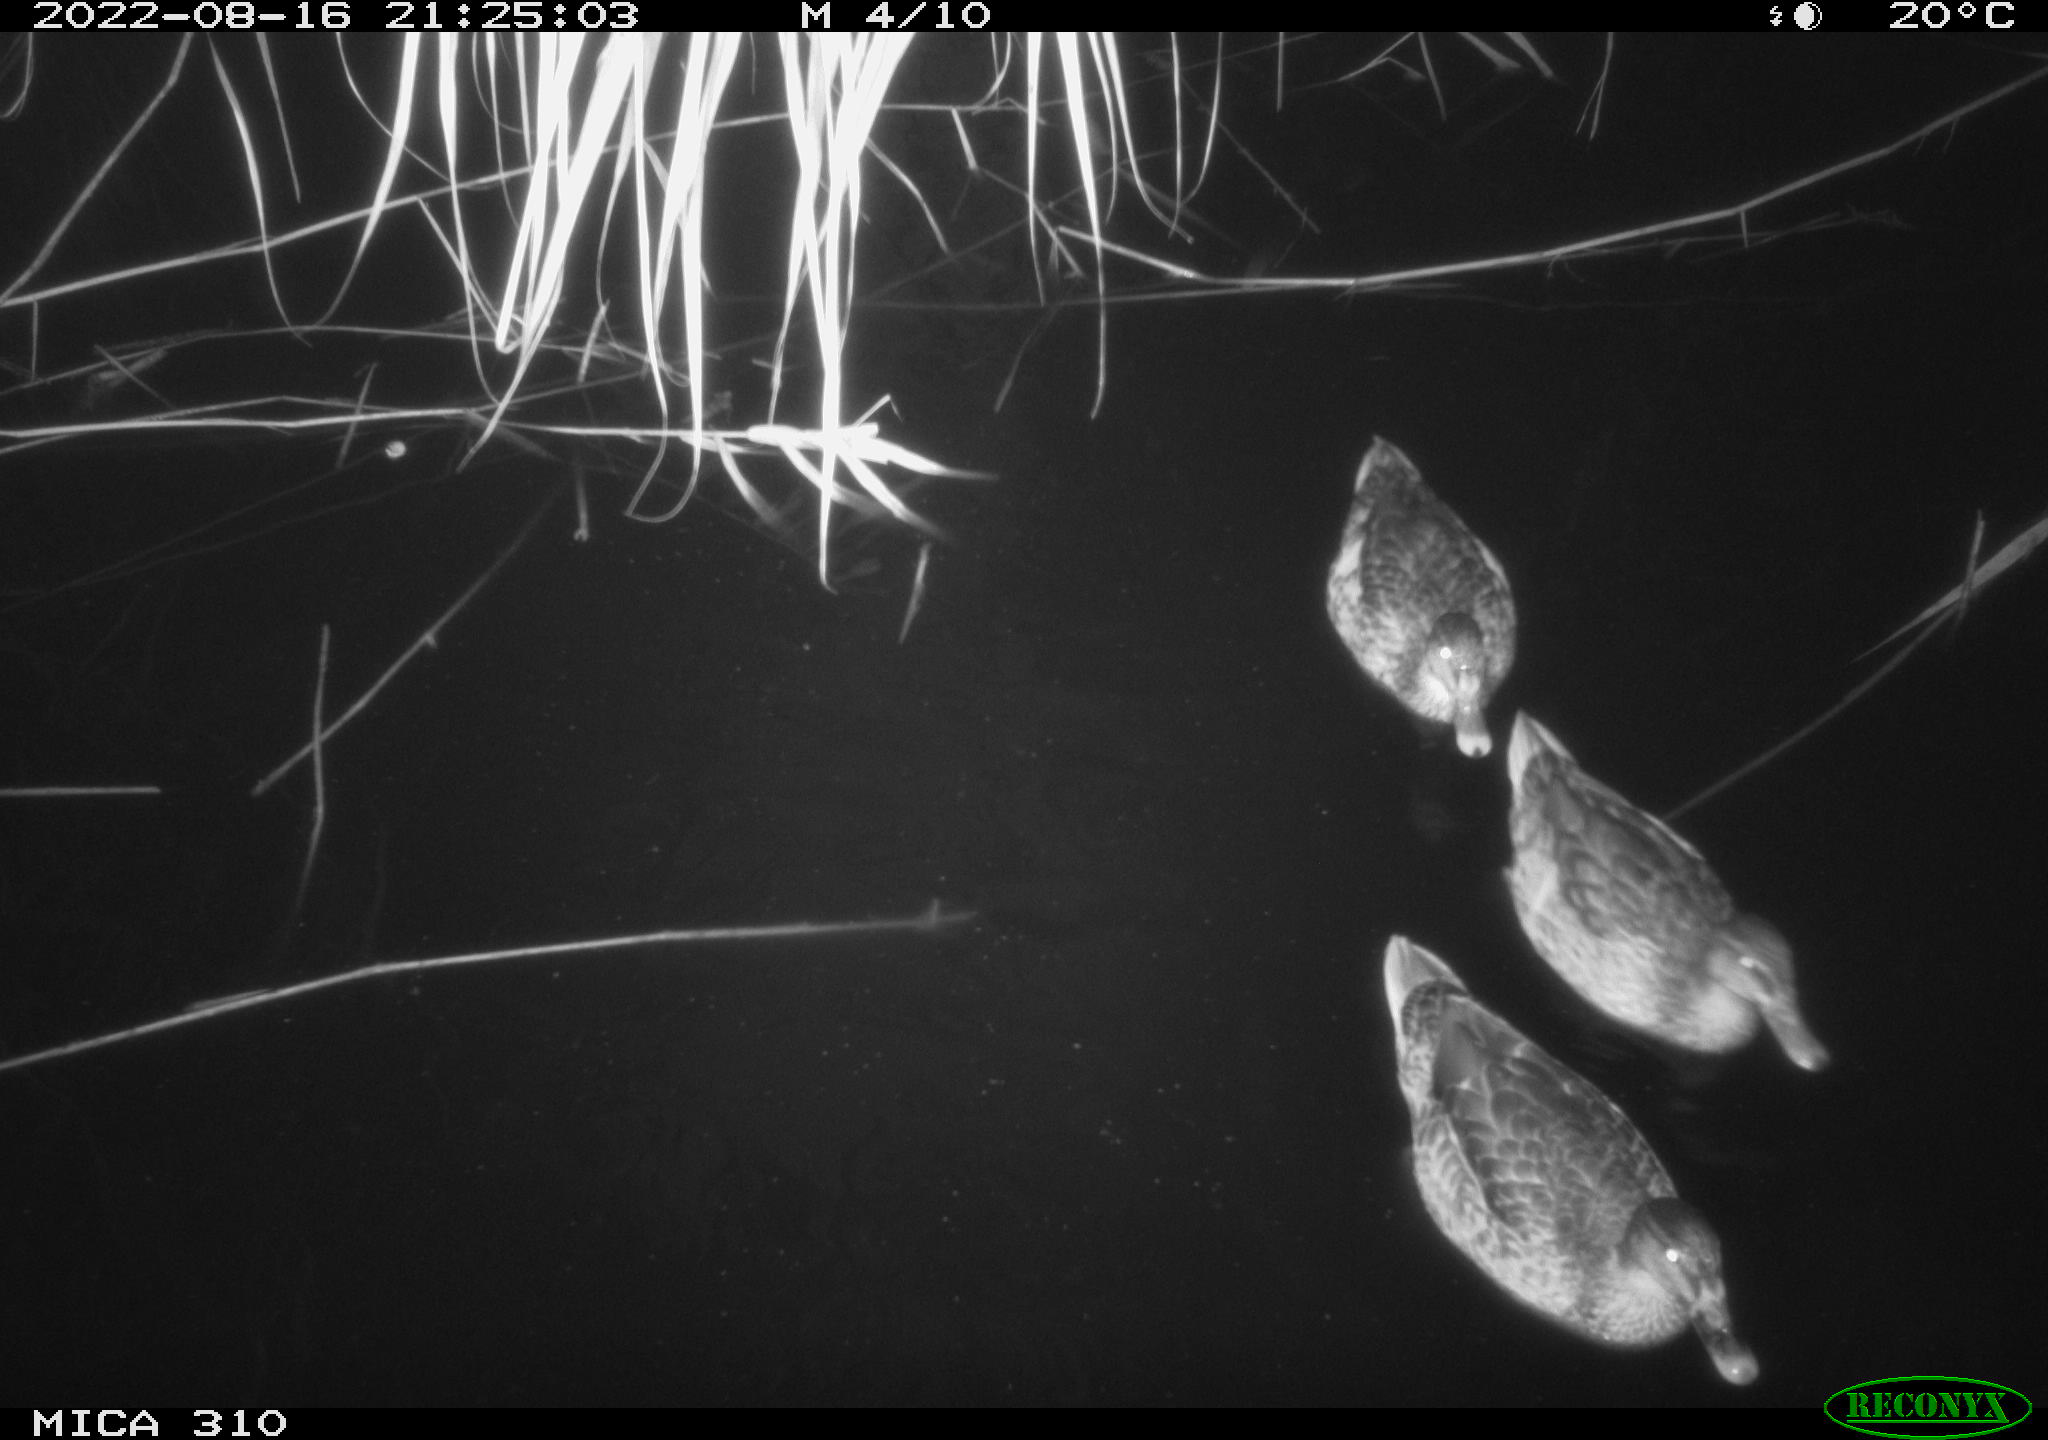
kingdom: Animalia
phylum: Chordata
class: Aves
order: Anseriformes
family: Anatidae
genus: Anas
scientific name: Anas platyrhynchos
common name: Mallard
